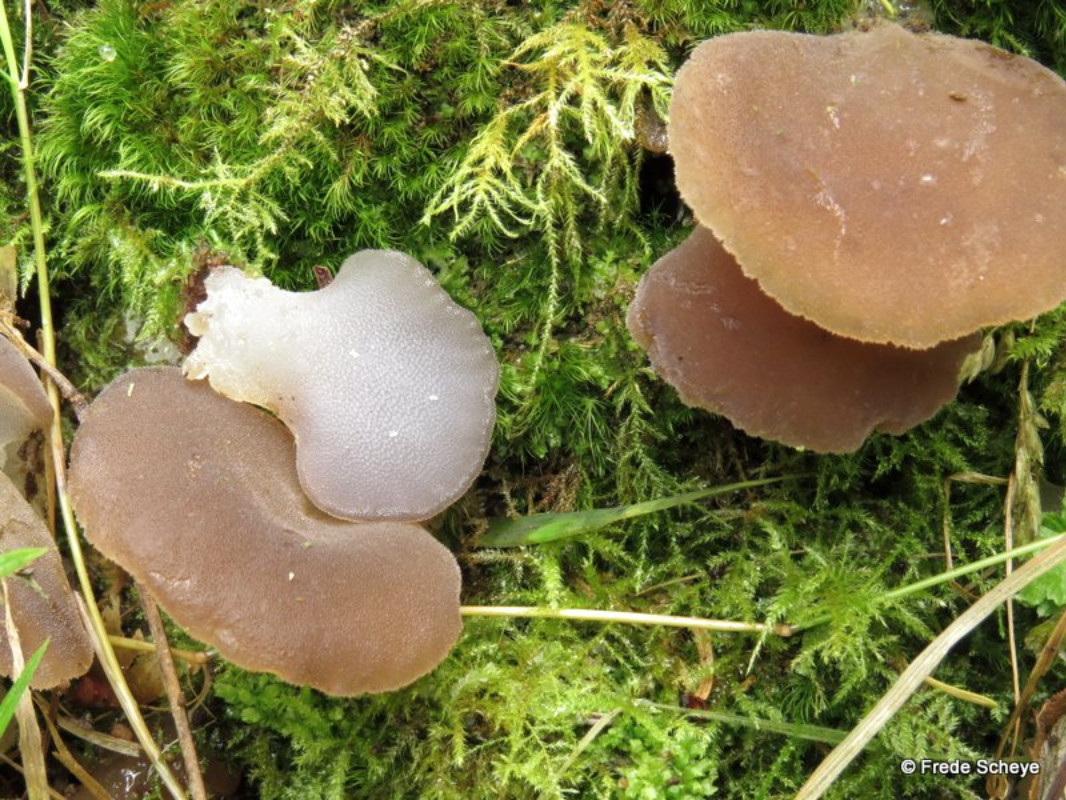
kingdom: Fungi
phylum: Basidiomycota
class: Agaricomycetes
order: Auriculariales
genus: Pseudohydnum
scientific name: Pseudohydnum gelatinosum
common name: bævretand
